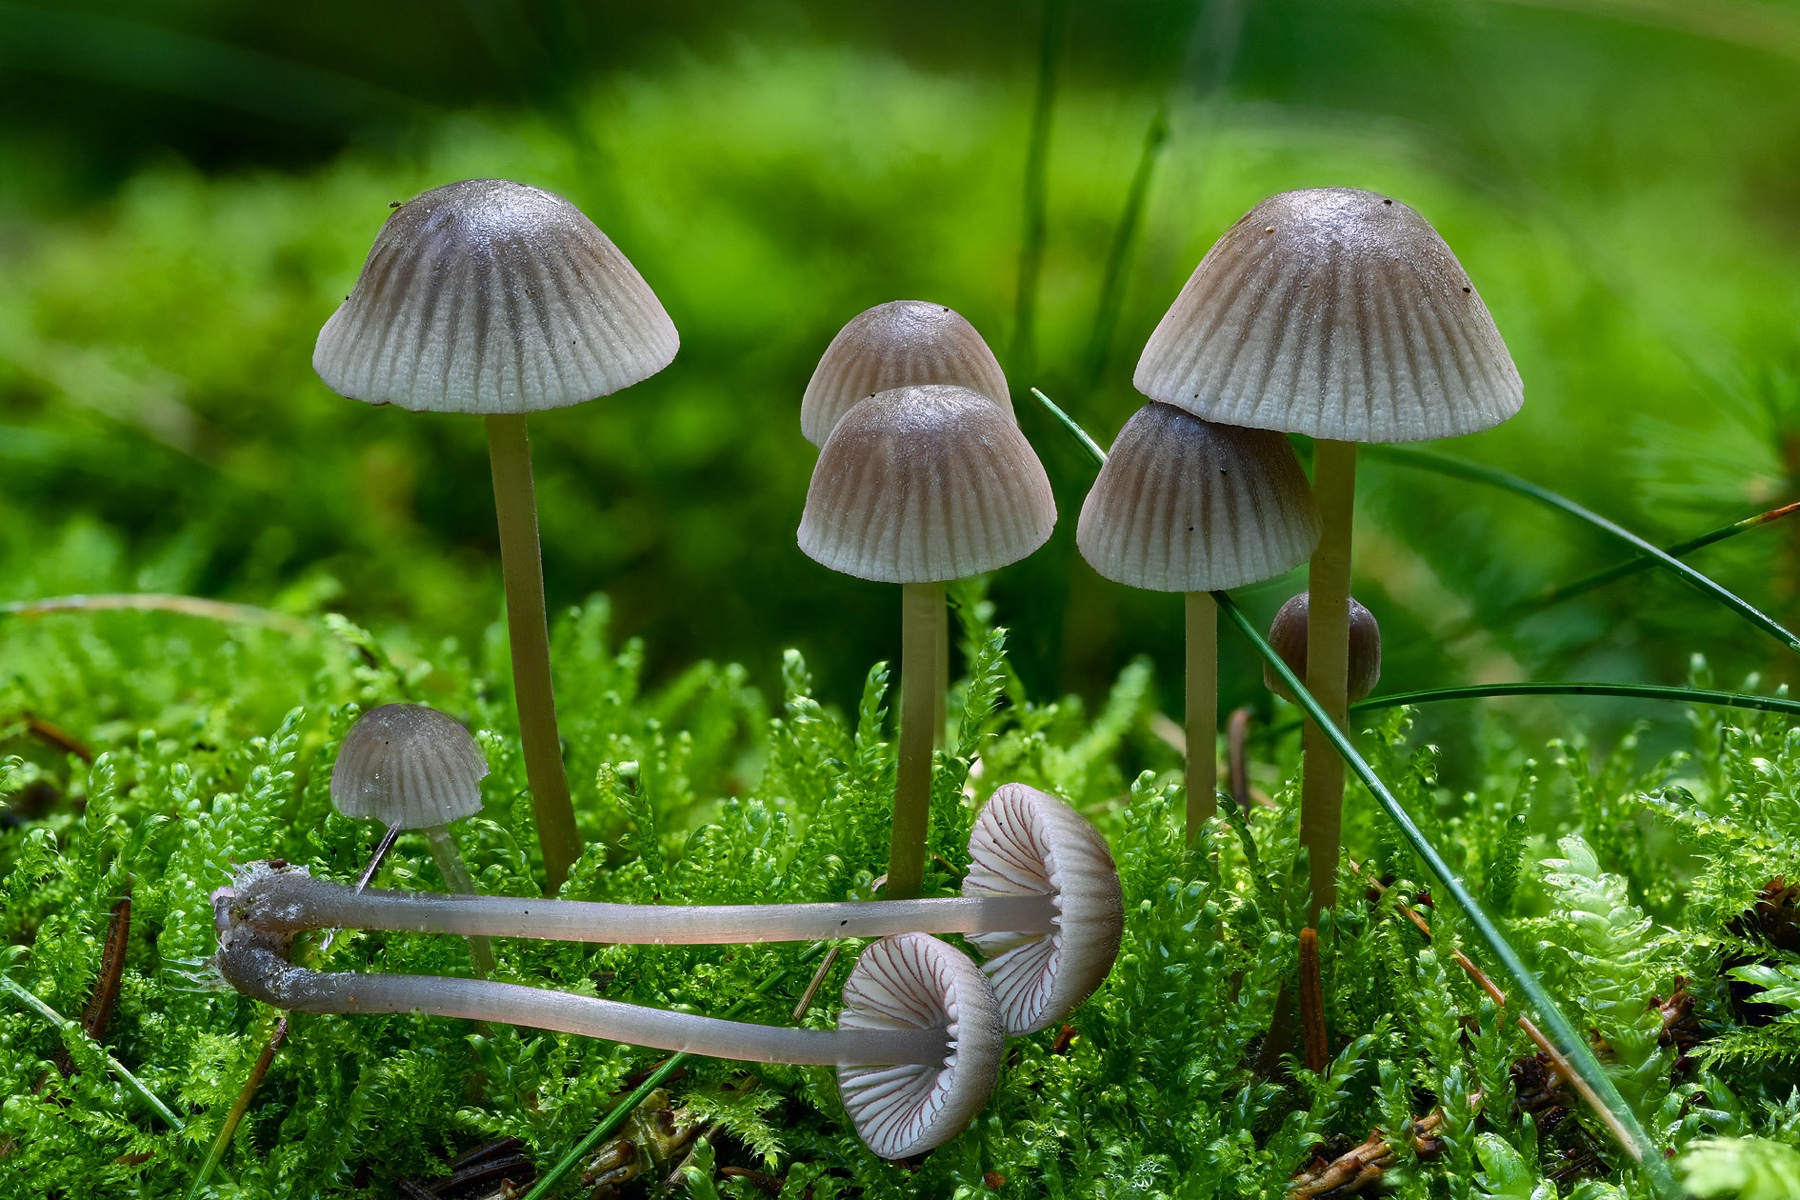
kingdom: Fungi
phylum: Basidiomycota
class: Agaricomycetes
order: Agaricales
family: Mycenaceae
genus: Mycena
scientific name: Mycena rubromarginata
